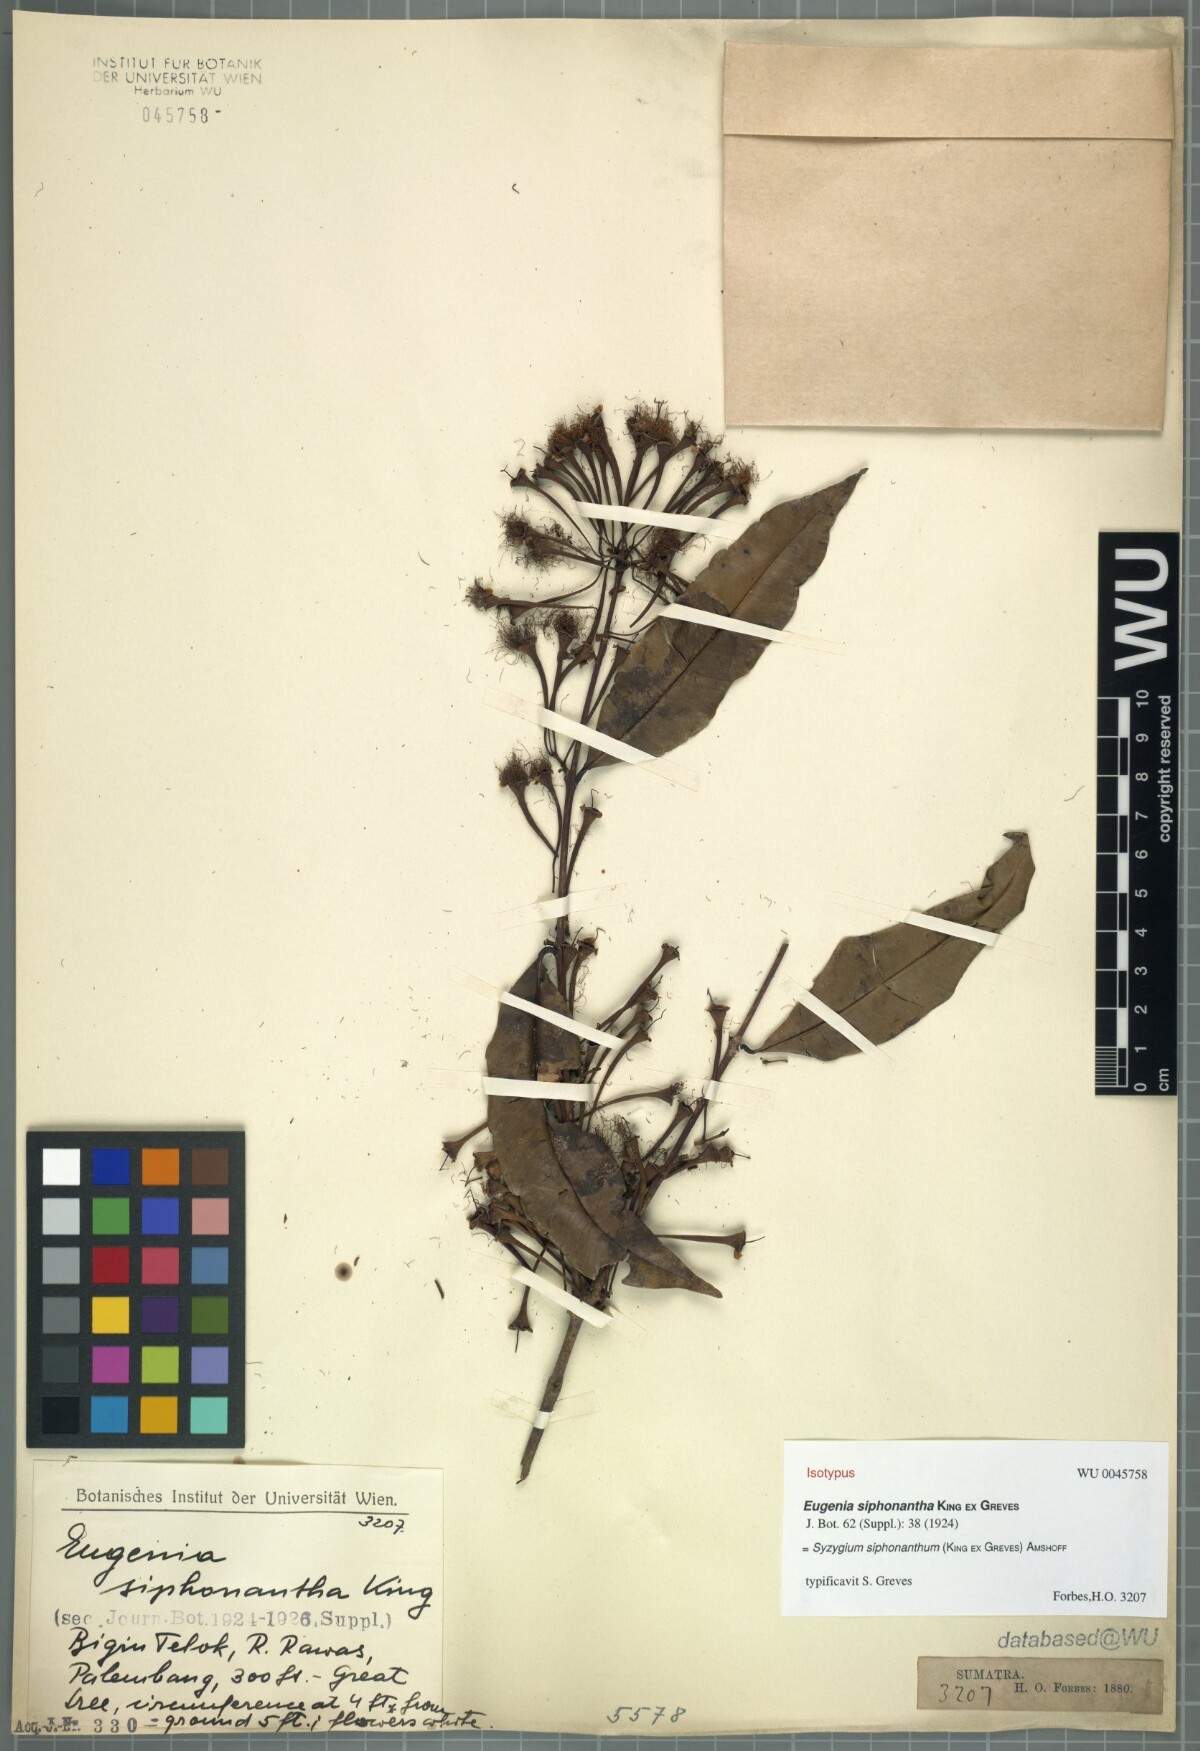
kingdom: Plantae
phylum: Tracheophyta
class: Magnoliopsida
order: Myrtales
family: Myrtaceae
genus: Syzygium
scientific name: Syzygium siphonanthum
